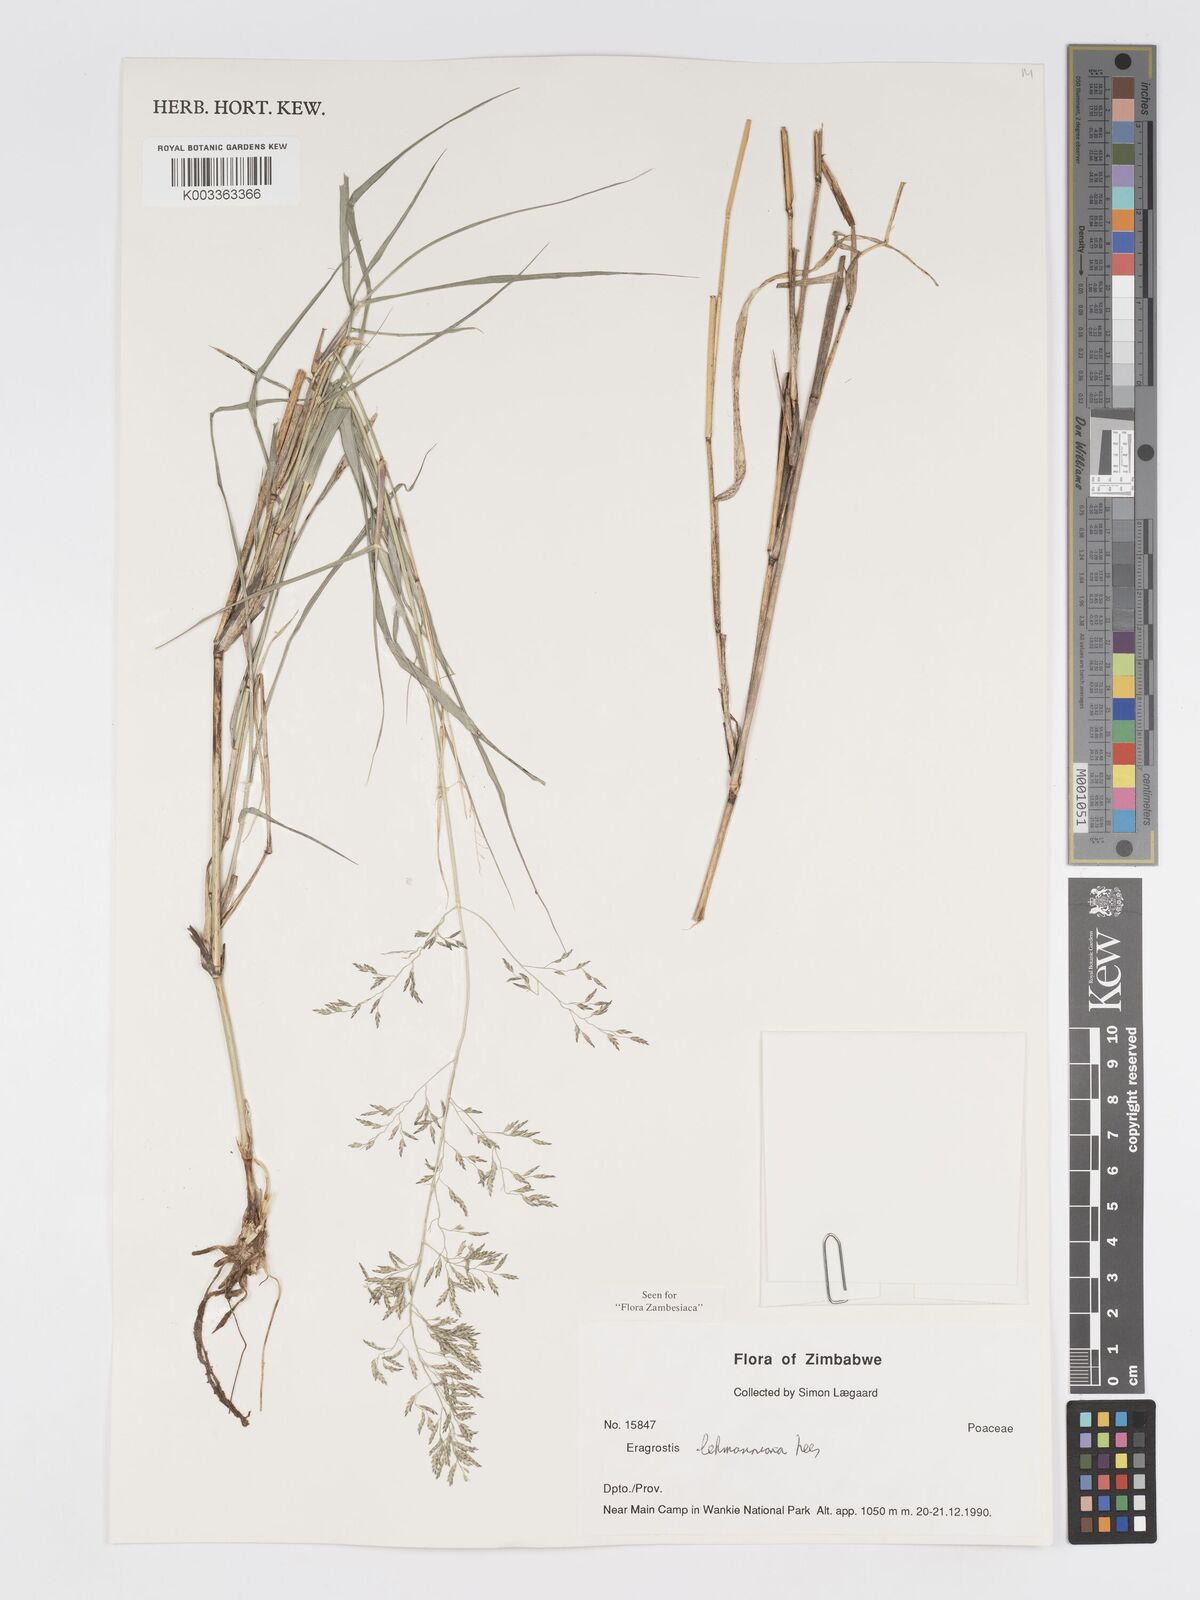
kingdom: Plantae
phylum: Tracheophyta
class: Liliopsida
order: Poales
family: Poaceae
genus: Eragrostis
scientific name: Eragrostis lehmanniana
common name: Lehmann lovegrass
